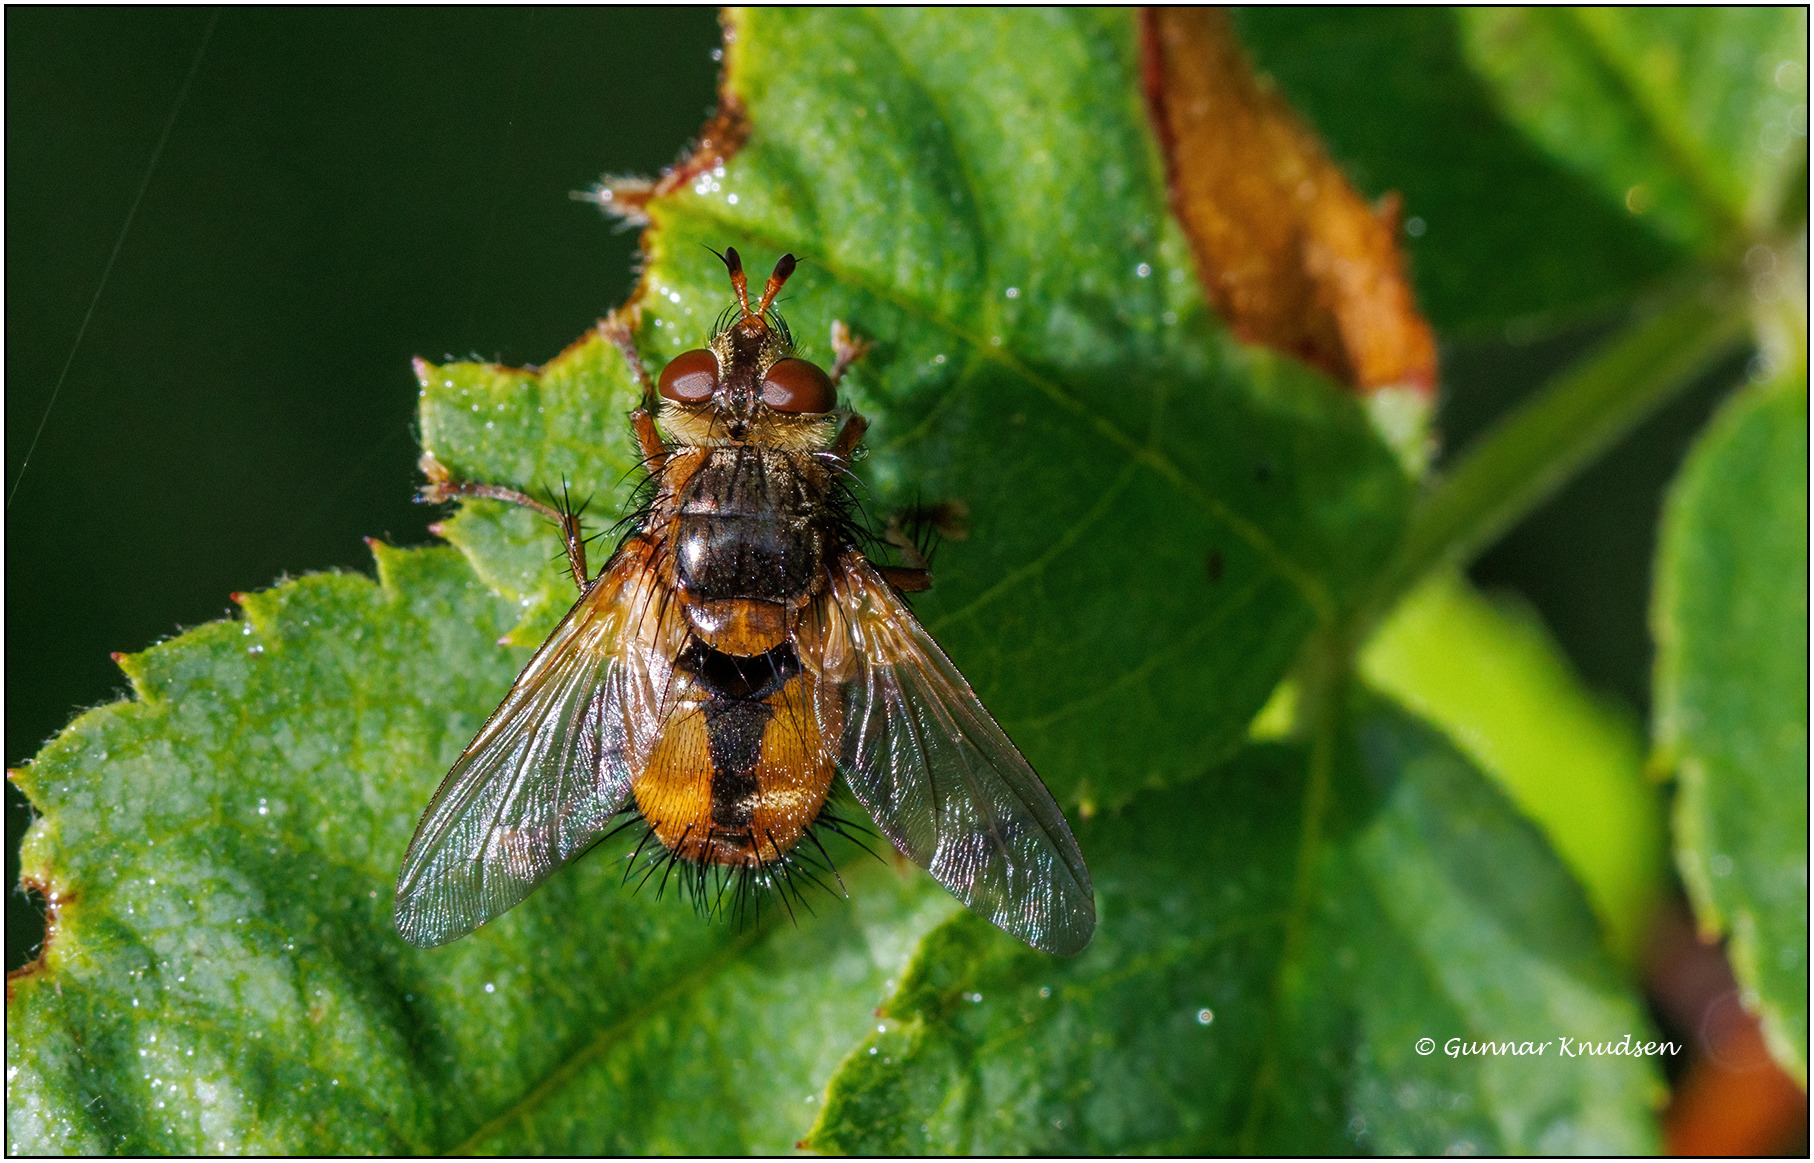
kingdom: Animalia
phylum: Arthropoda
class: Insecta
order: Diptera
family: Tachinidae
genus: Tachina
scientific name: Tachina fera
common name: Mellemfluen oskar
